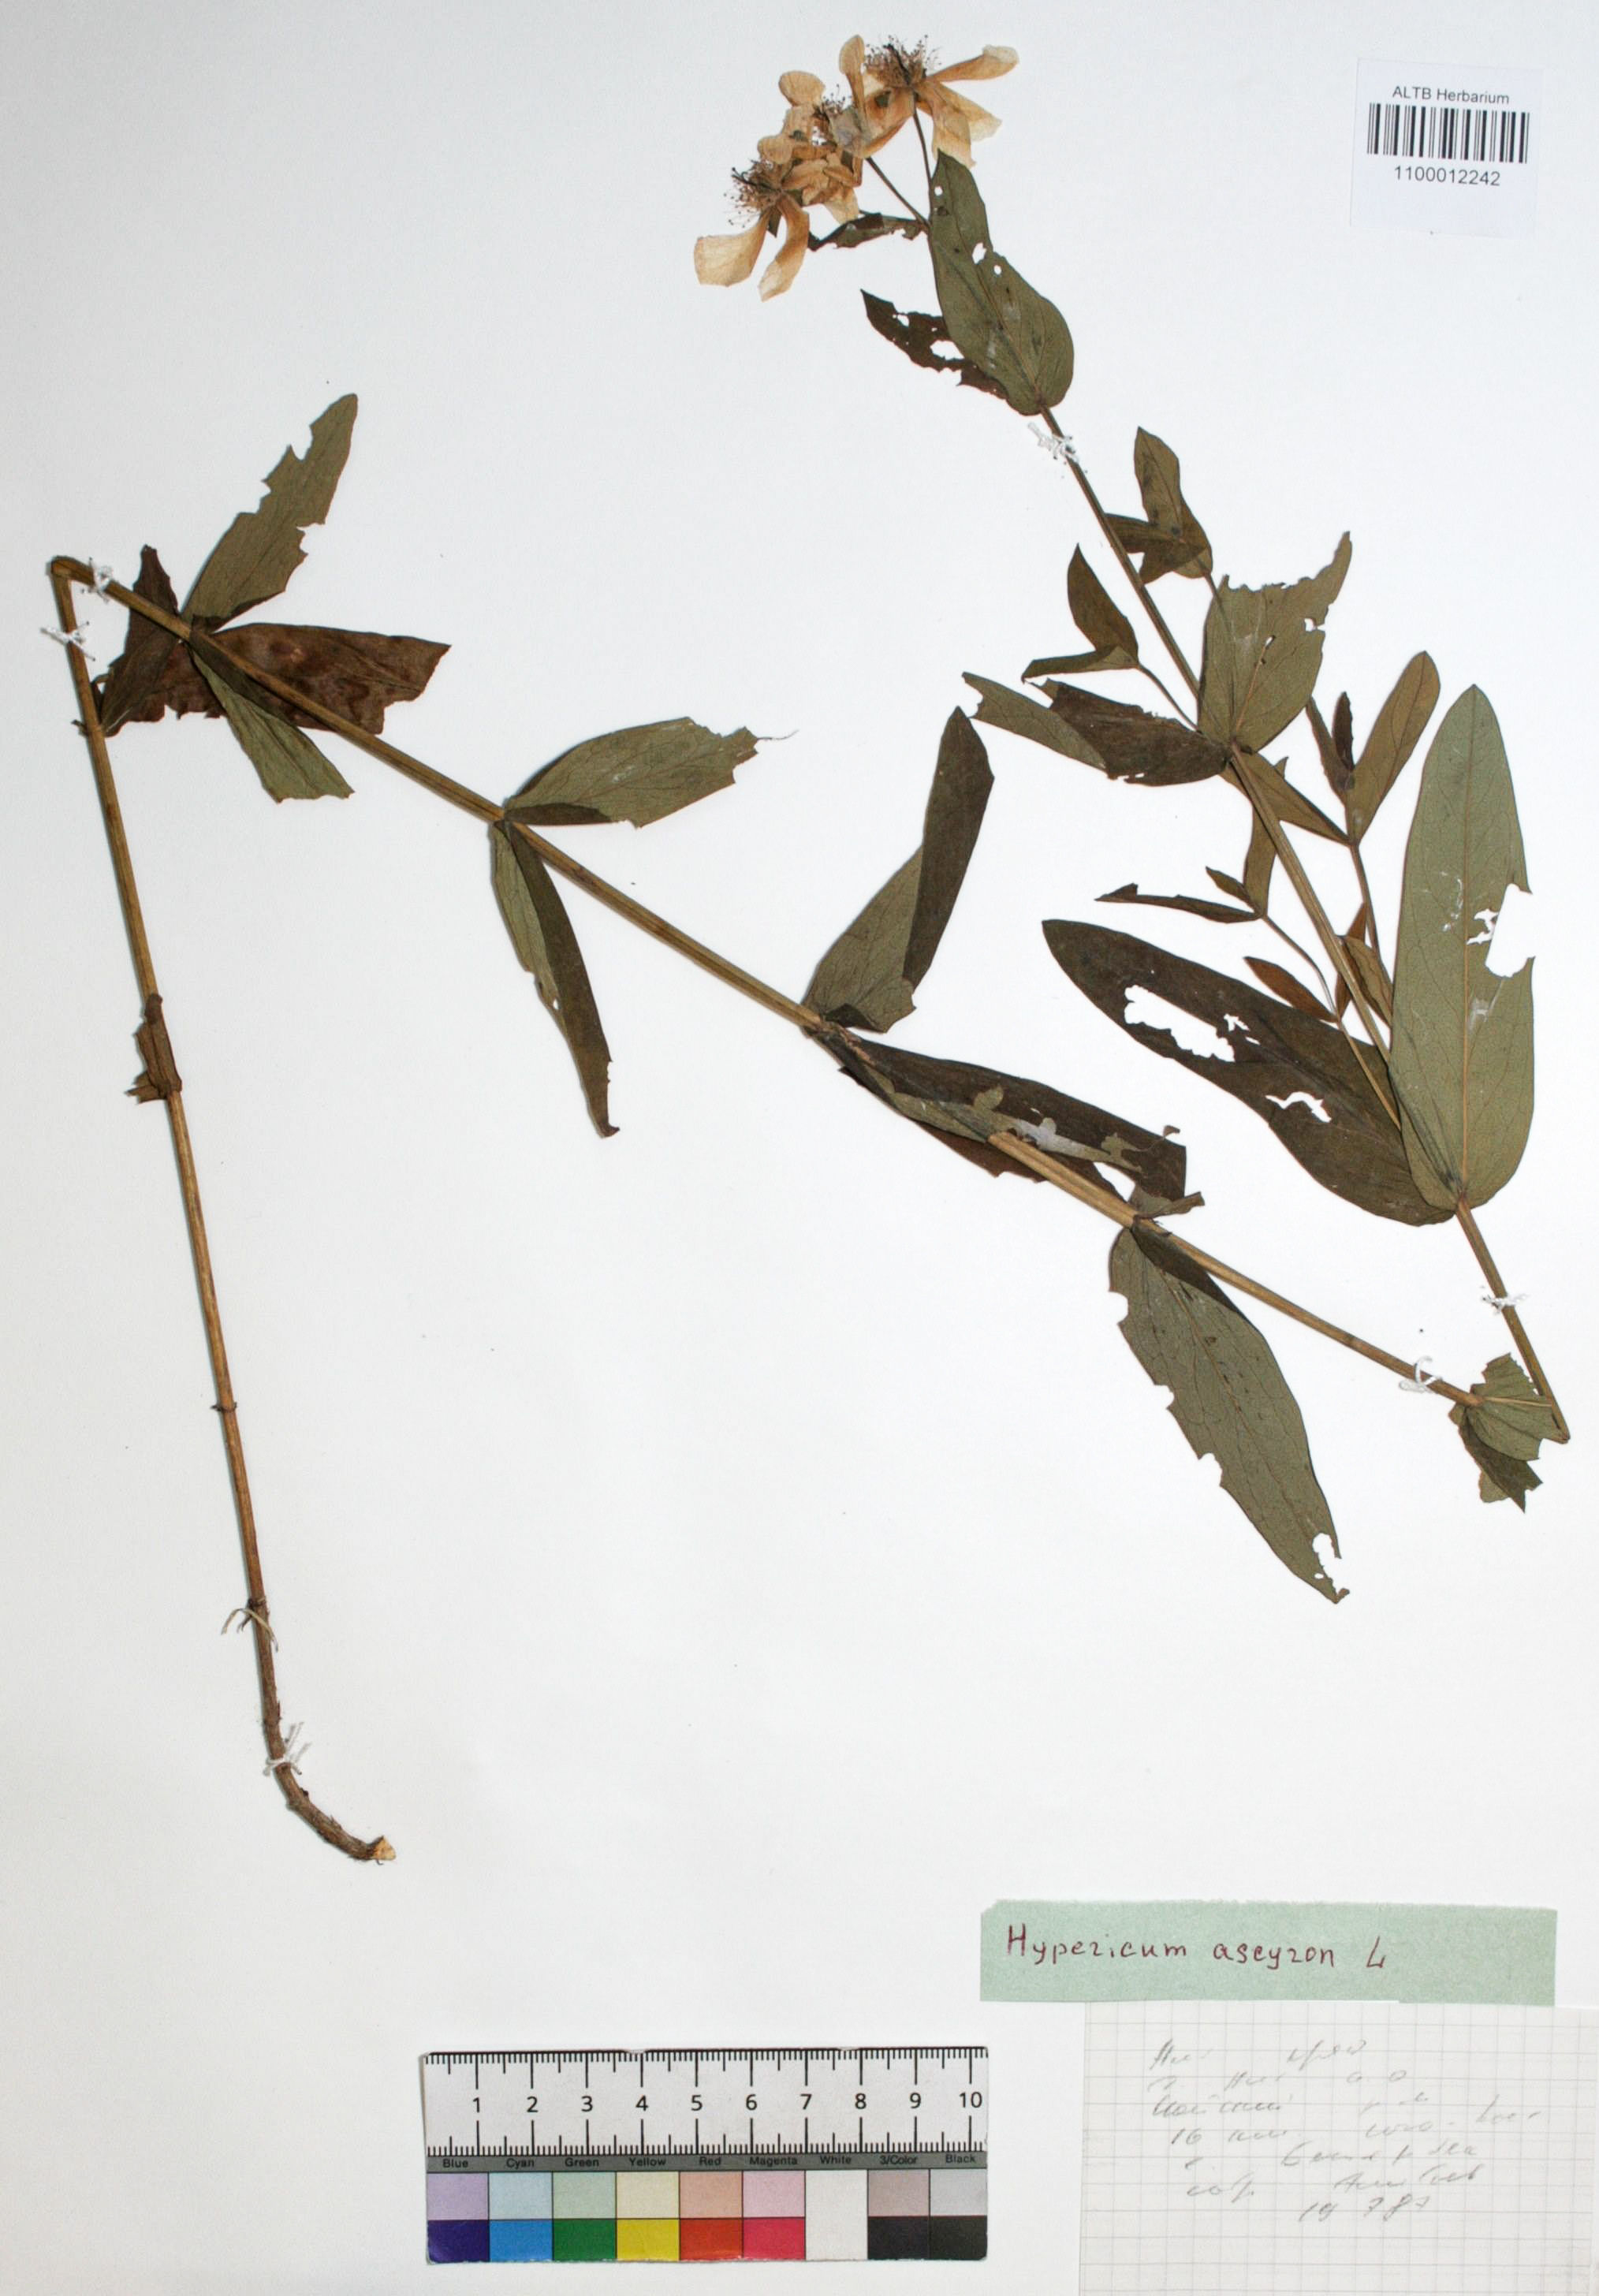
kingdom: Plantae
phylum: Tracheophyta
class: Magnoliopsida
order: Malpighiales
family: Hypericaceae
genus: Hypericum
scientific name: Hypericum ascyron
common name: Giant st. john's-wort
